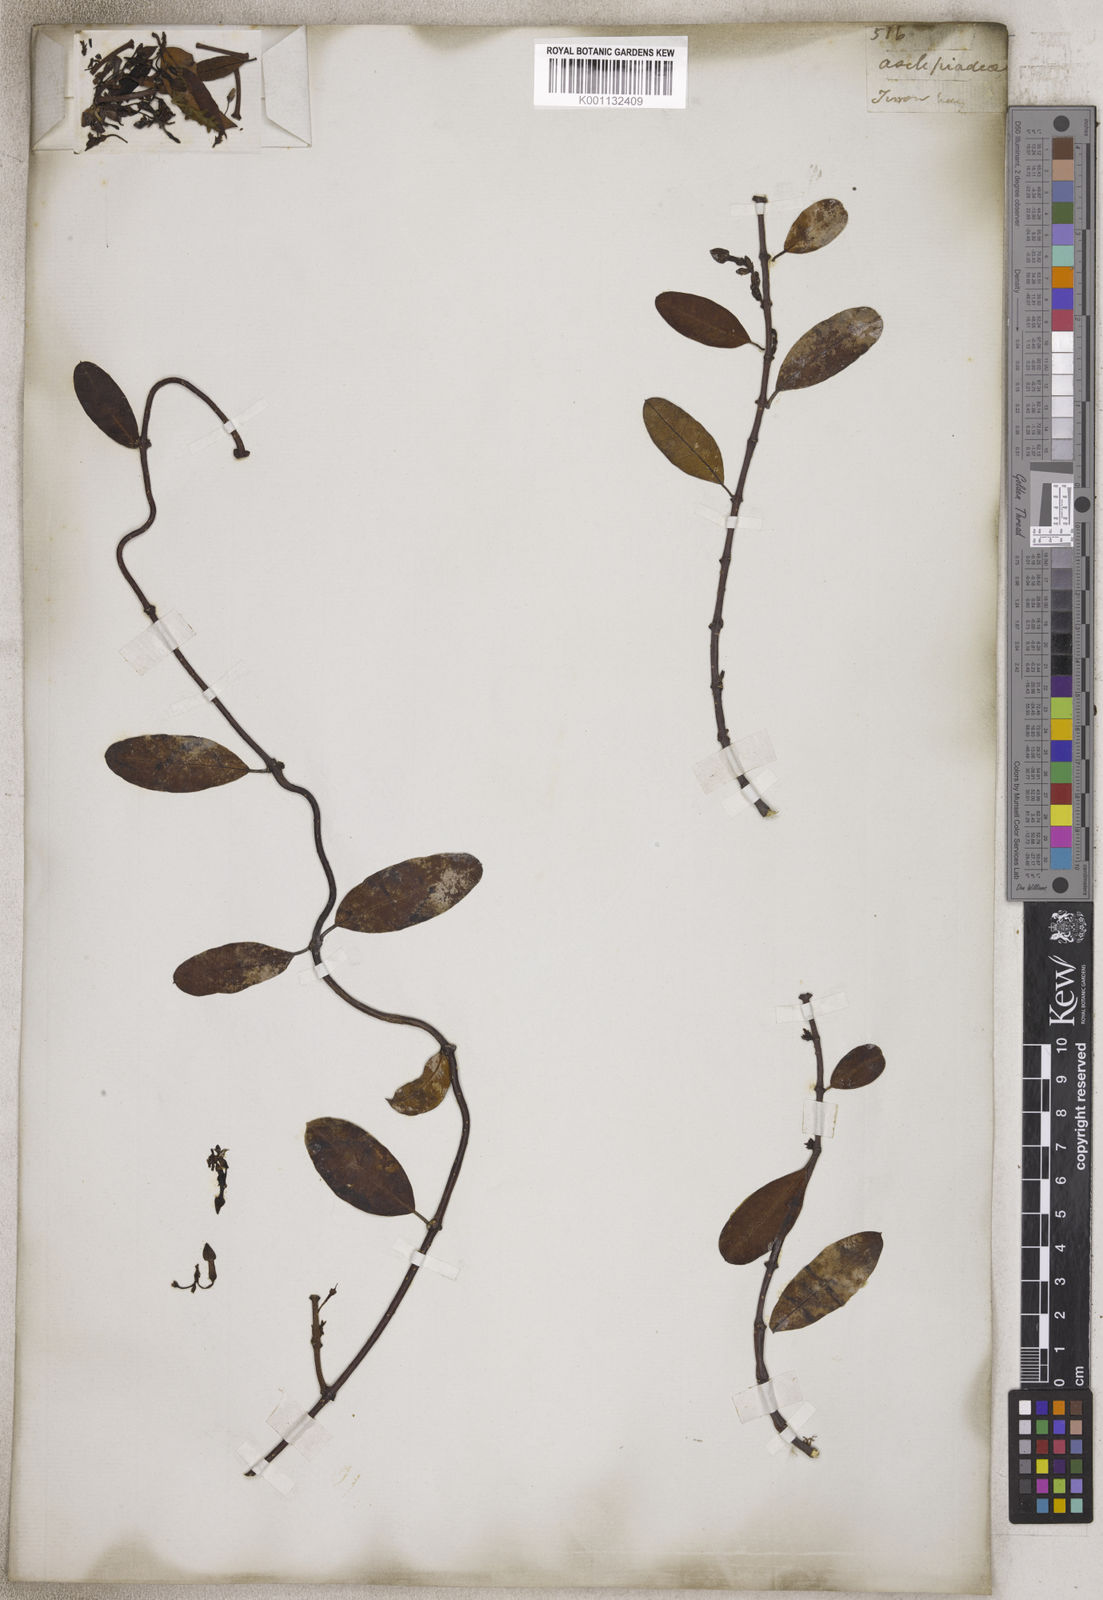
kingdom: Plantae
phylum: Tracheophyta
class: Magnoliopsida
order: Gentianales
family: Apocynaceae
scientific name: Apocynaceae
